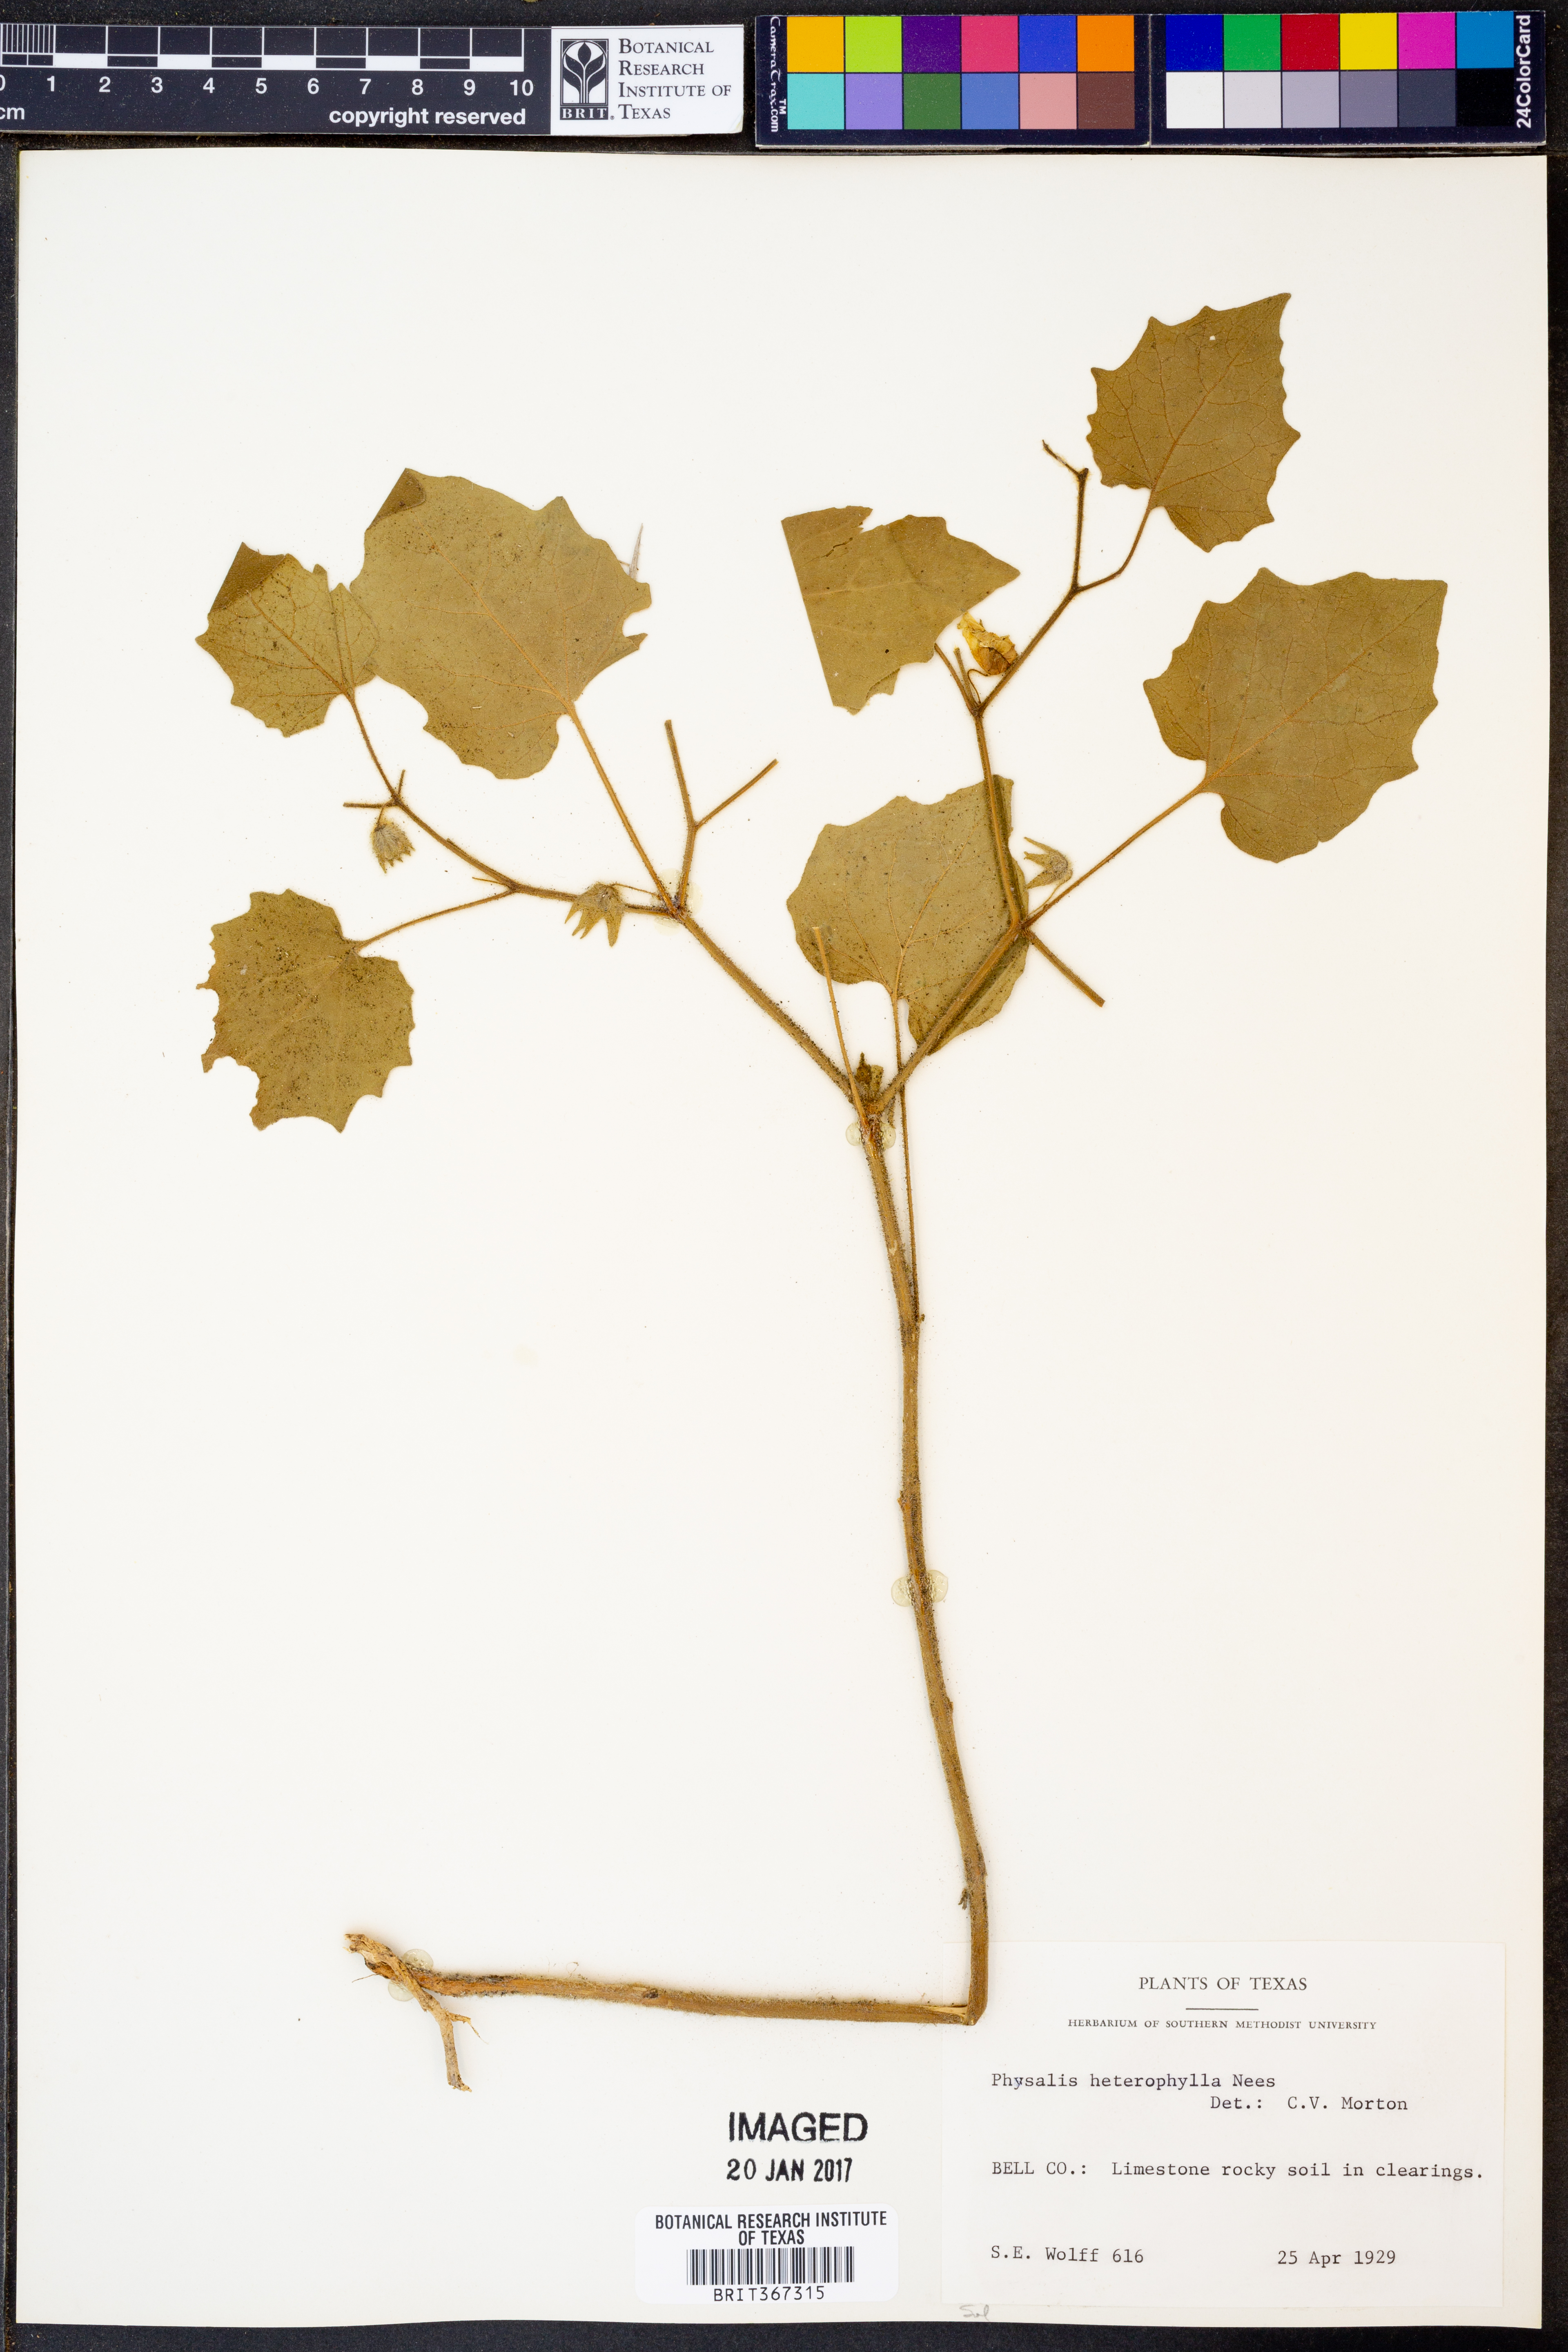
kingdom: Plantae
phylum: Tracheophyta
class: Magnoliopsida
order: Solanales
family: Solanaceae
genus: Physalis
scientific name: Physalis heterophylla
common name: Clammy ground-cherry
